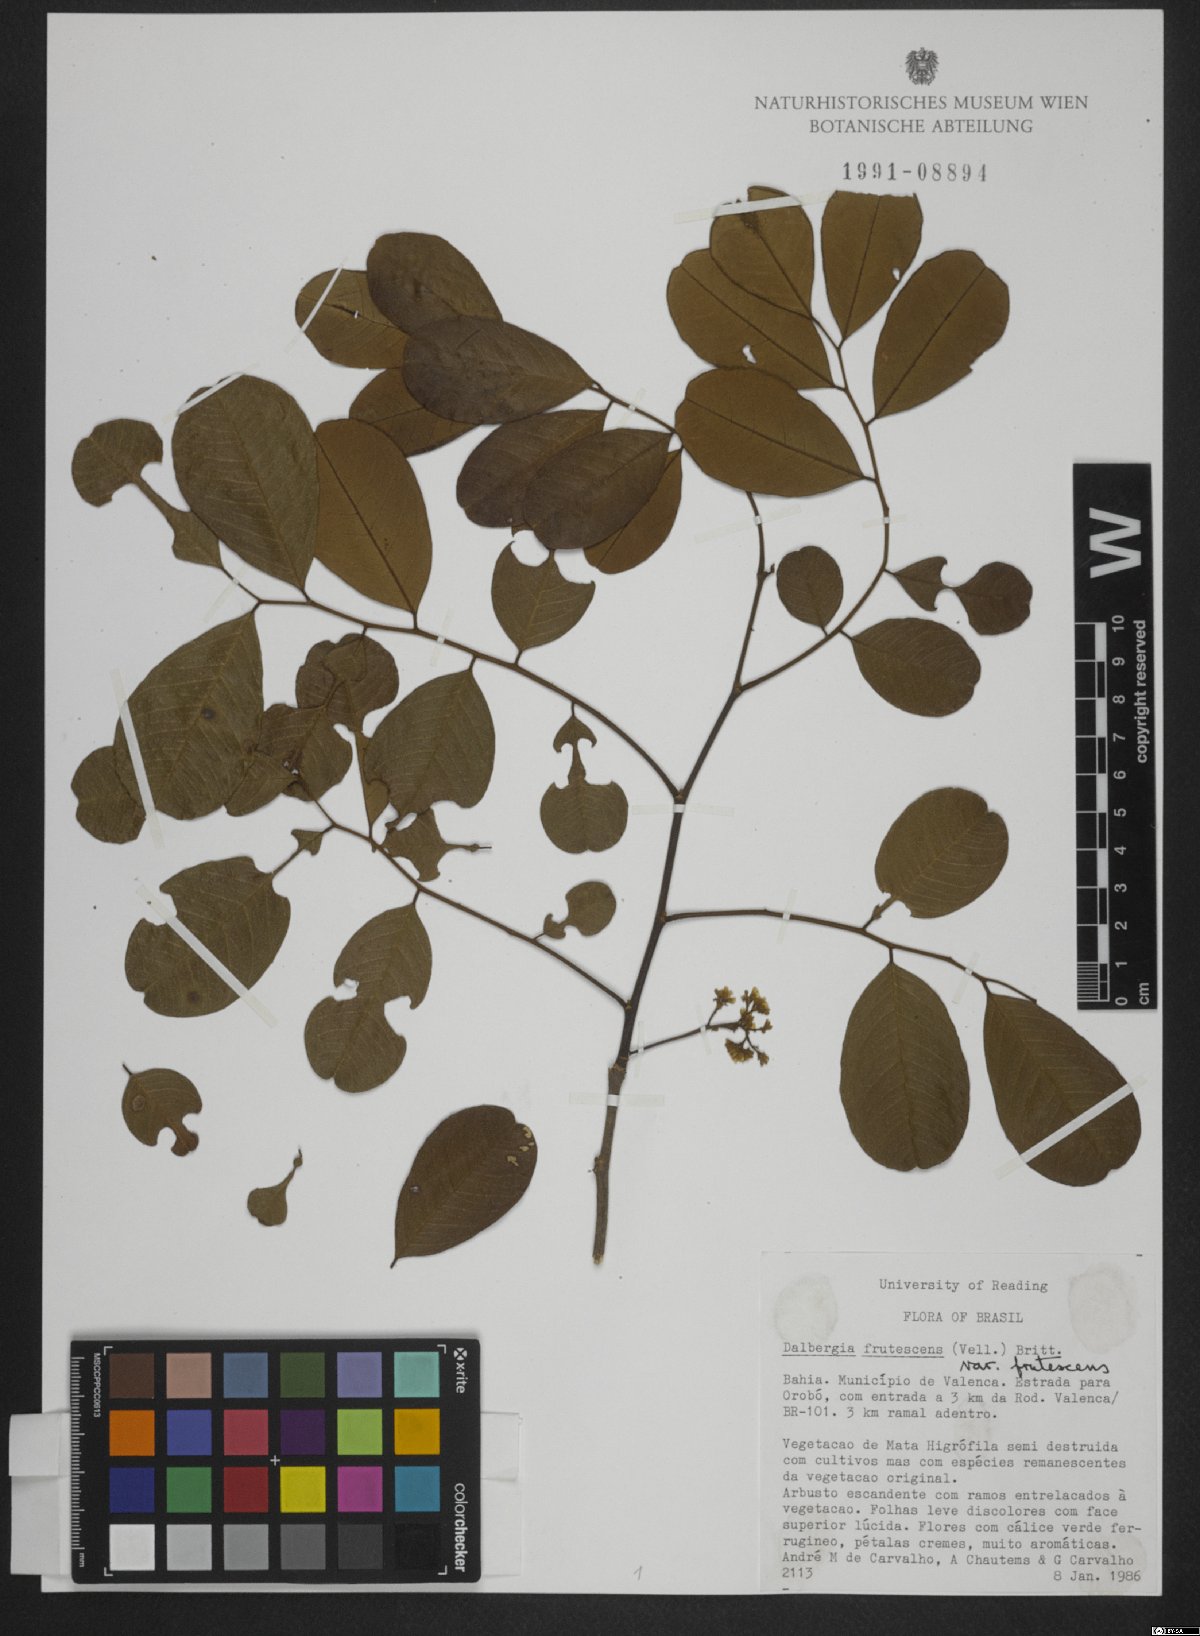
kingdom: Plantae
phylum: Tracheophyta
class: Magnoliopsida
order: Fabales
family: Fabaceae
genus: Dalbergia
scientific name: Dalbergia frutescens
